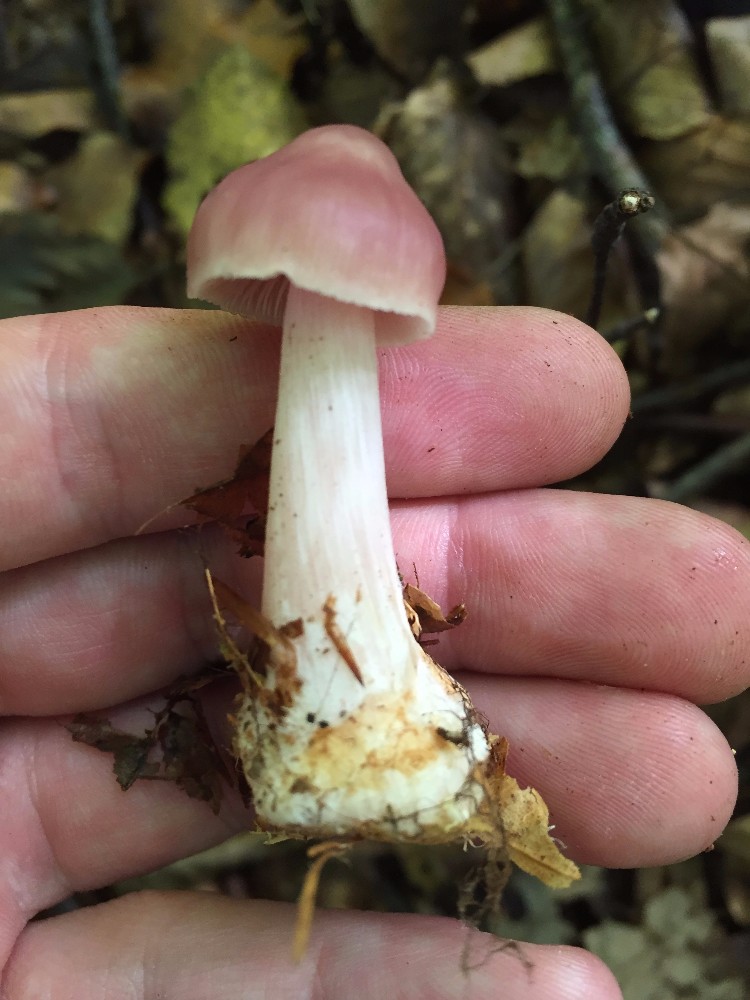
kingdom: Fungi
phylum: Basidiomycota
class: Agaricomycetes
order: Agaricales
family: Mycenaceae
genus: Mycena
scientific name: Mycena rosea
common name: rosa huesvamp
